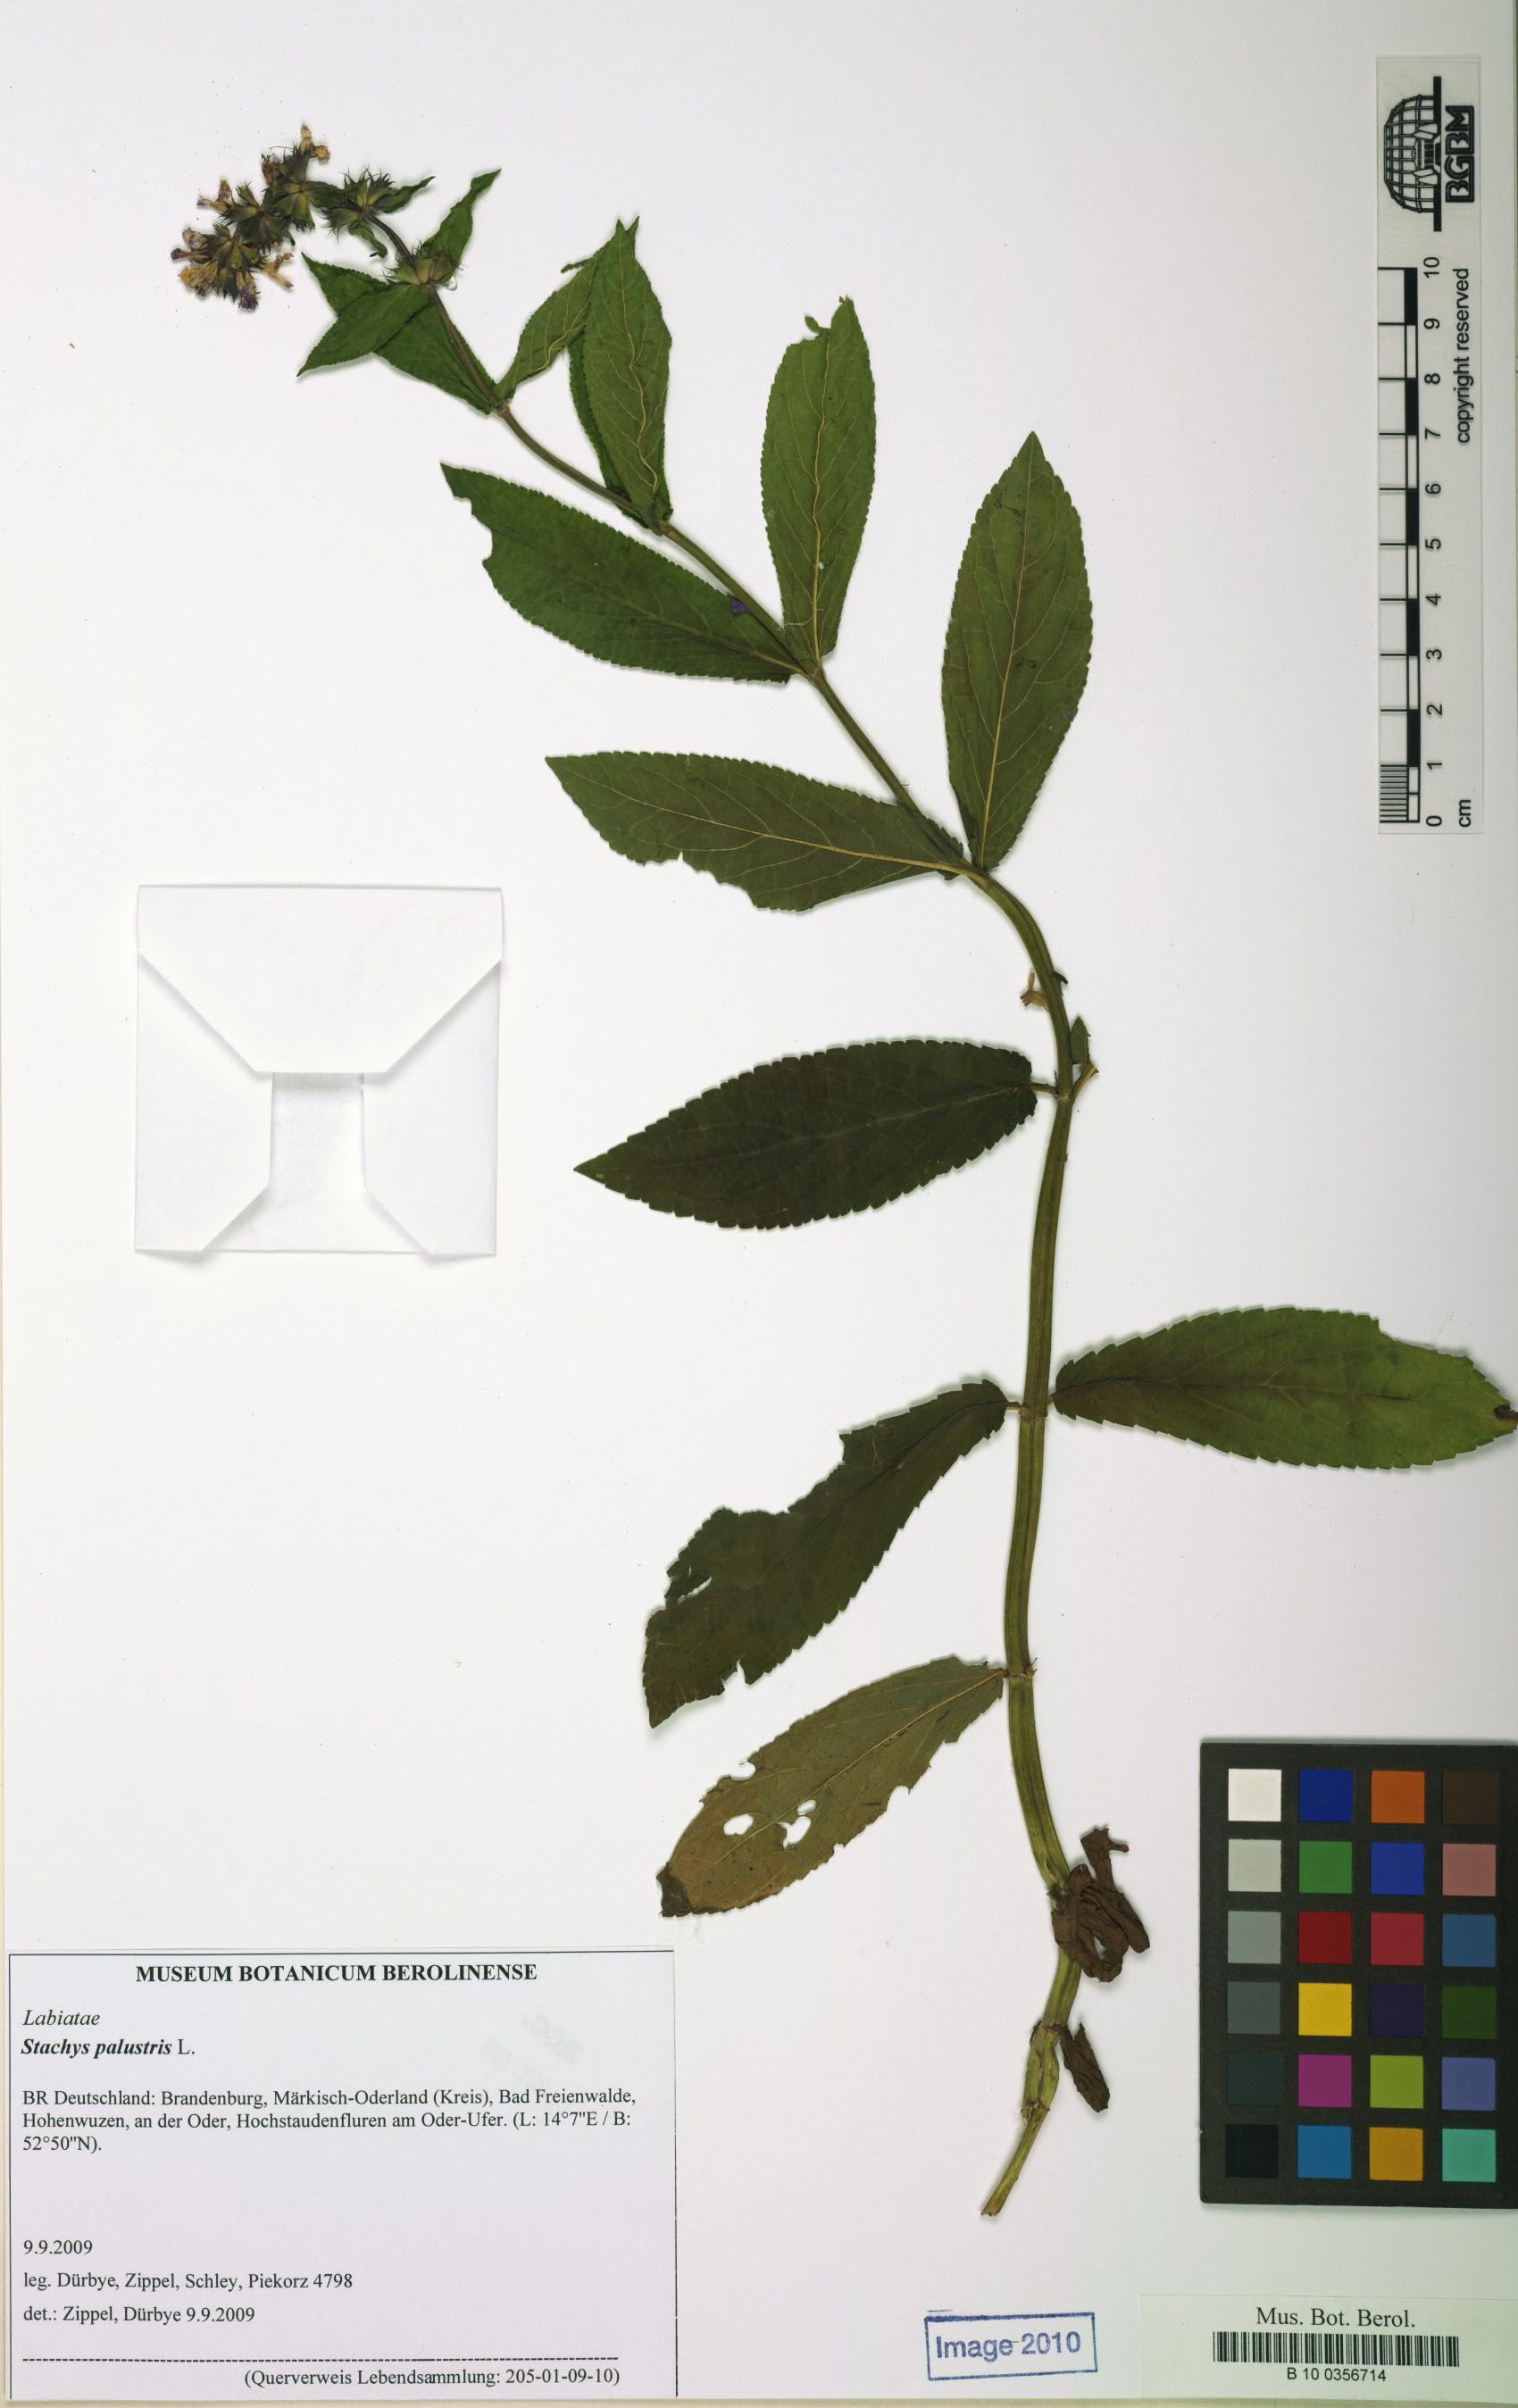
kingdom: Plantae
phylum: Tracheophyta
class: Magnoliopsida
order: Lamiales
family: Lamiaceae
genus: Stachys
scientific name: Stachys palustris
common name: Marsh woundwort
